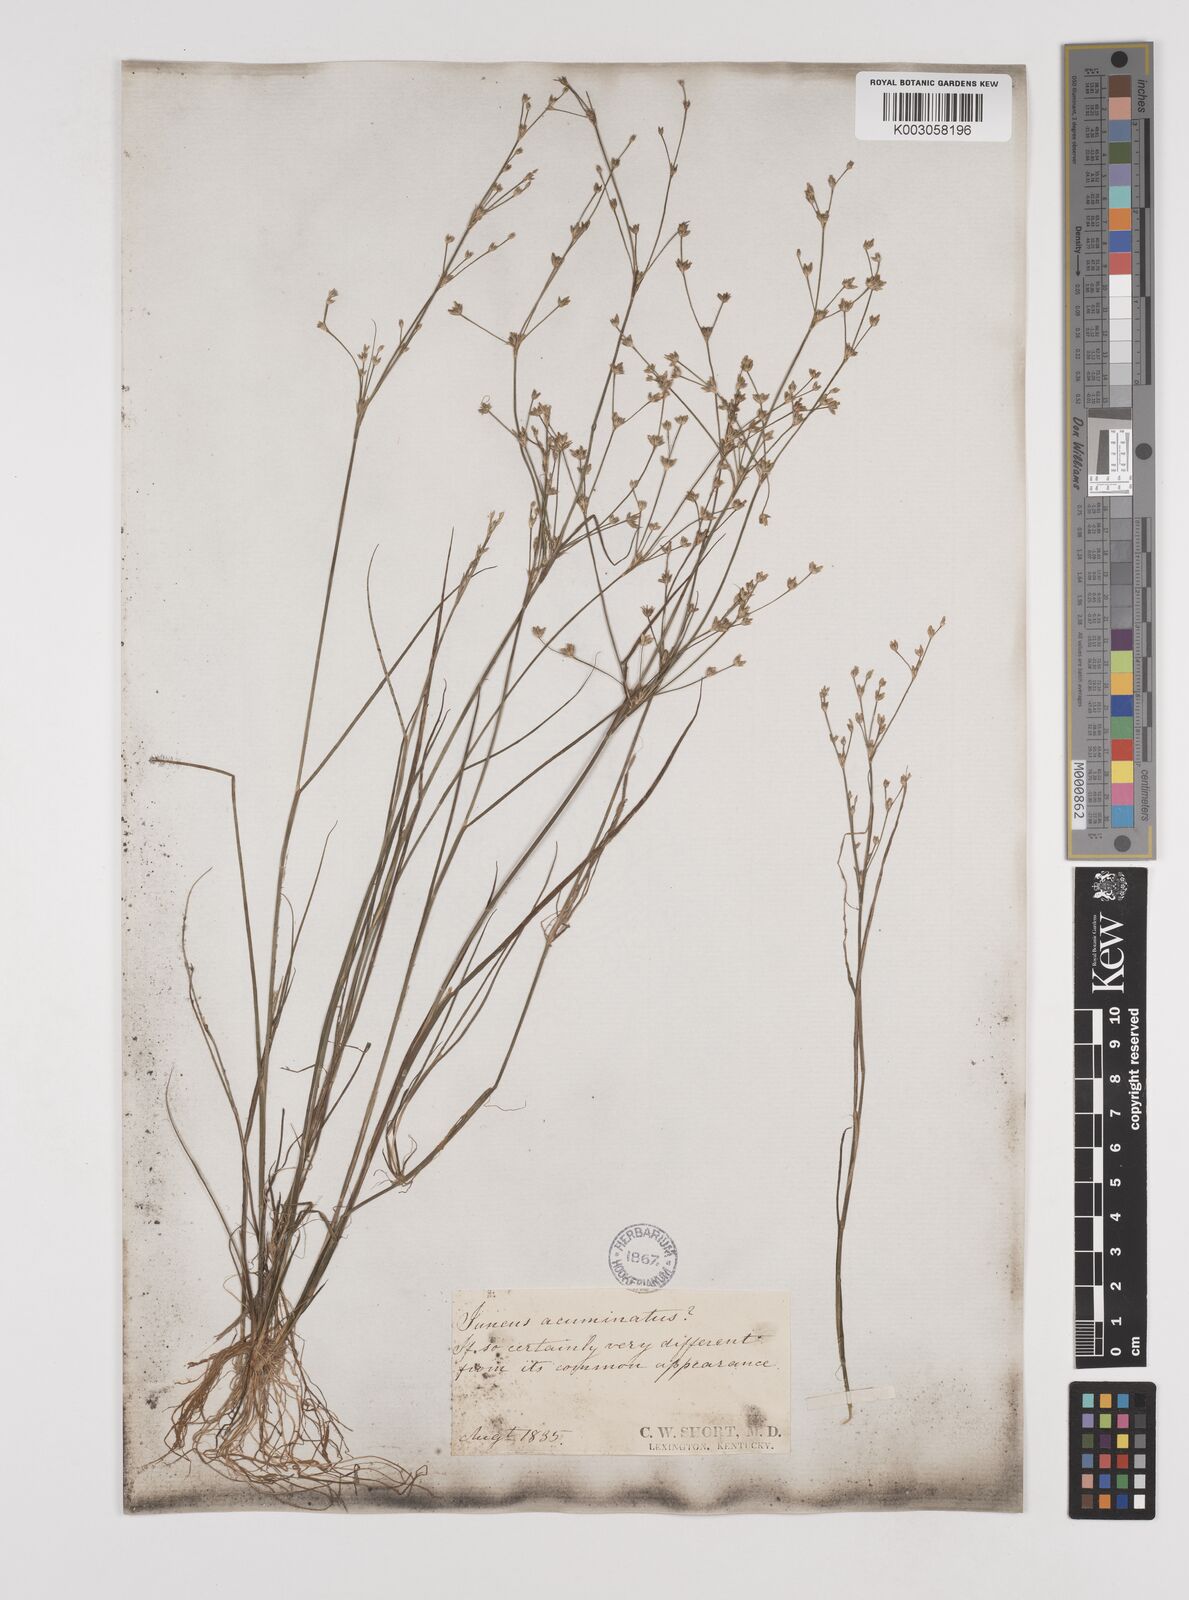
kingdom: Plantae
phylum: Tracheophyta
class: Liliopsida
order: Poales
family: Juncaceae
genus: Juncus
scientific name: Juncus
